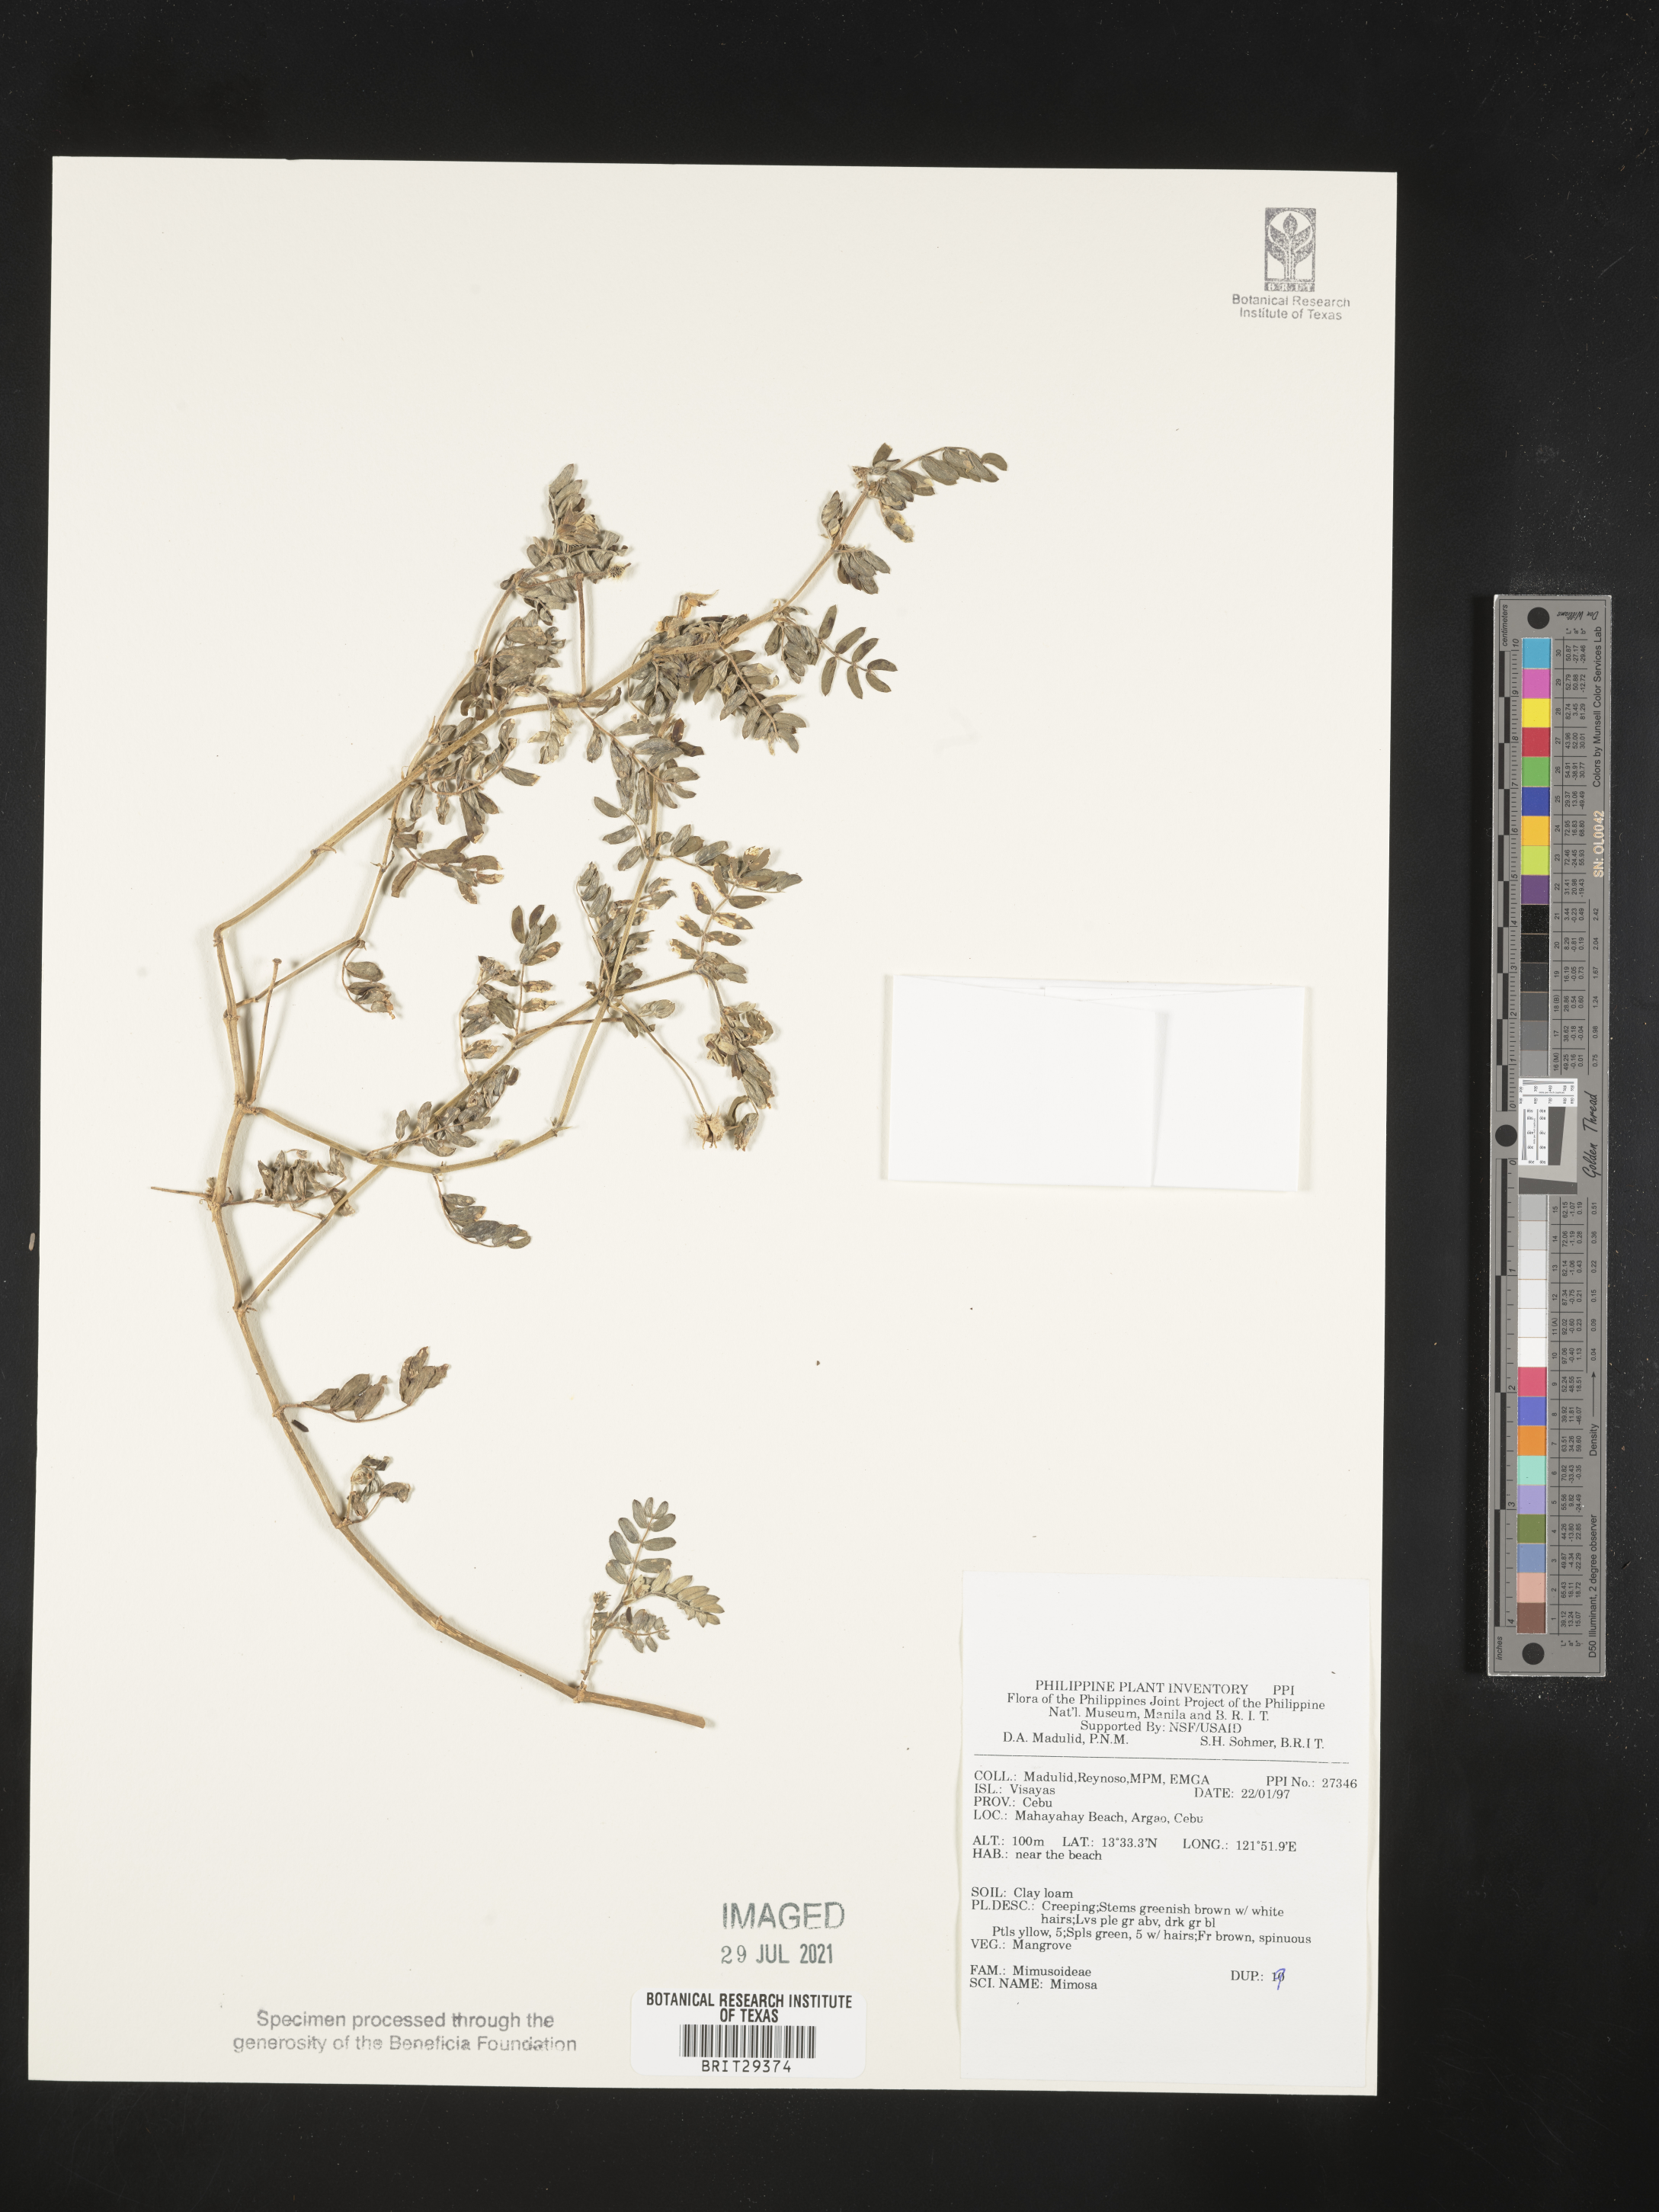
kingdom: Plantae
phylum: Tracheophyta
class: Magnoliopsida
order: Fabales
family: Fabaceae
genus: Mimosa
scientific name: Mimosa
